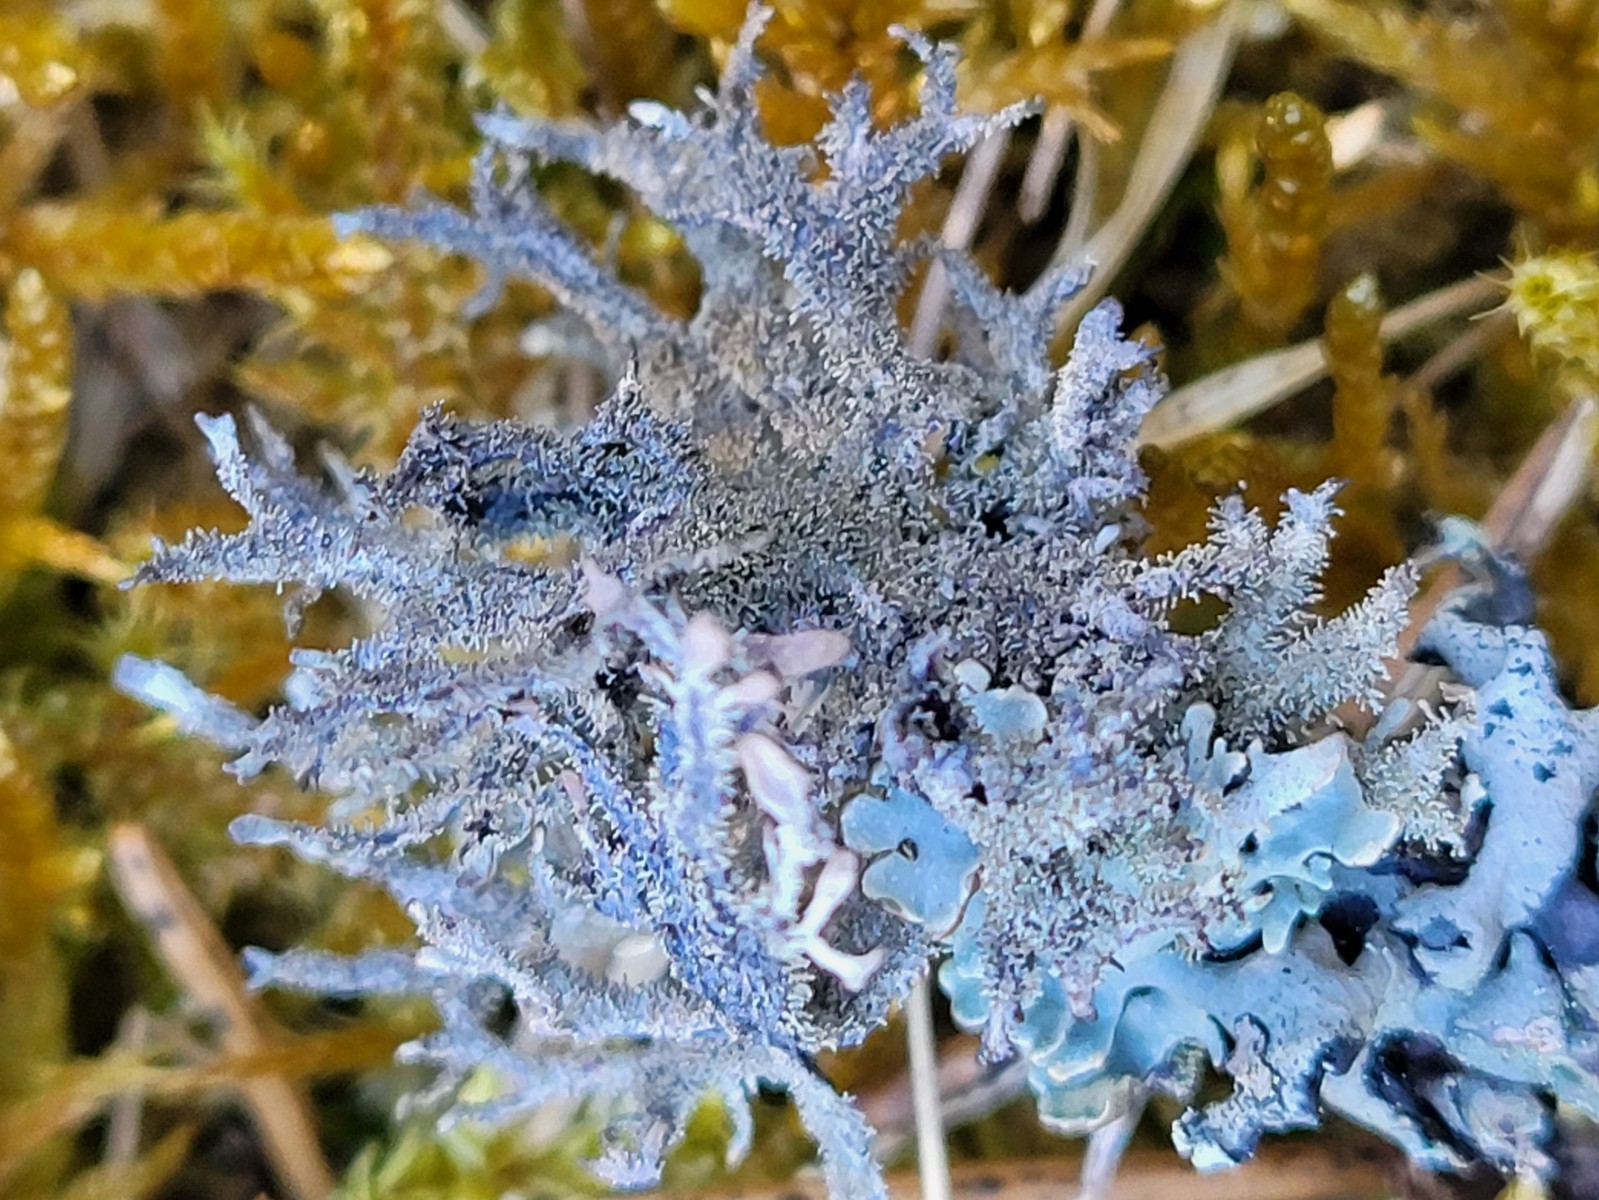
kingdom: Fungi
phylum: Ascomycota
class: Lecanoromycetes
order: Lecanorales
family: Parmeliaceae
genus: Pseudevernia
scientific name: Pseudevernia furfuracea
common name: grå fyrrelav
